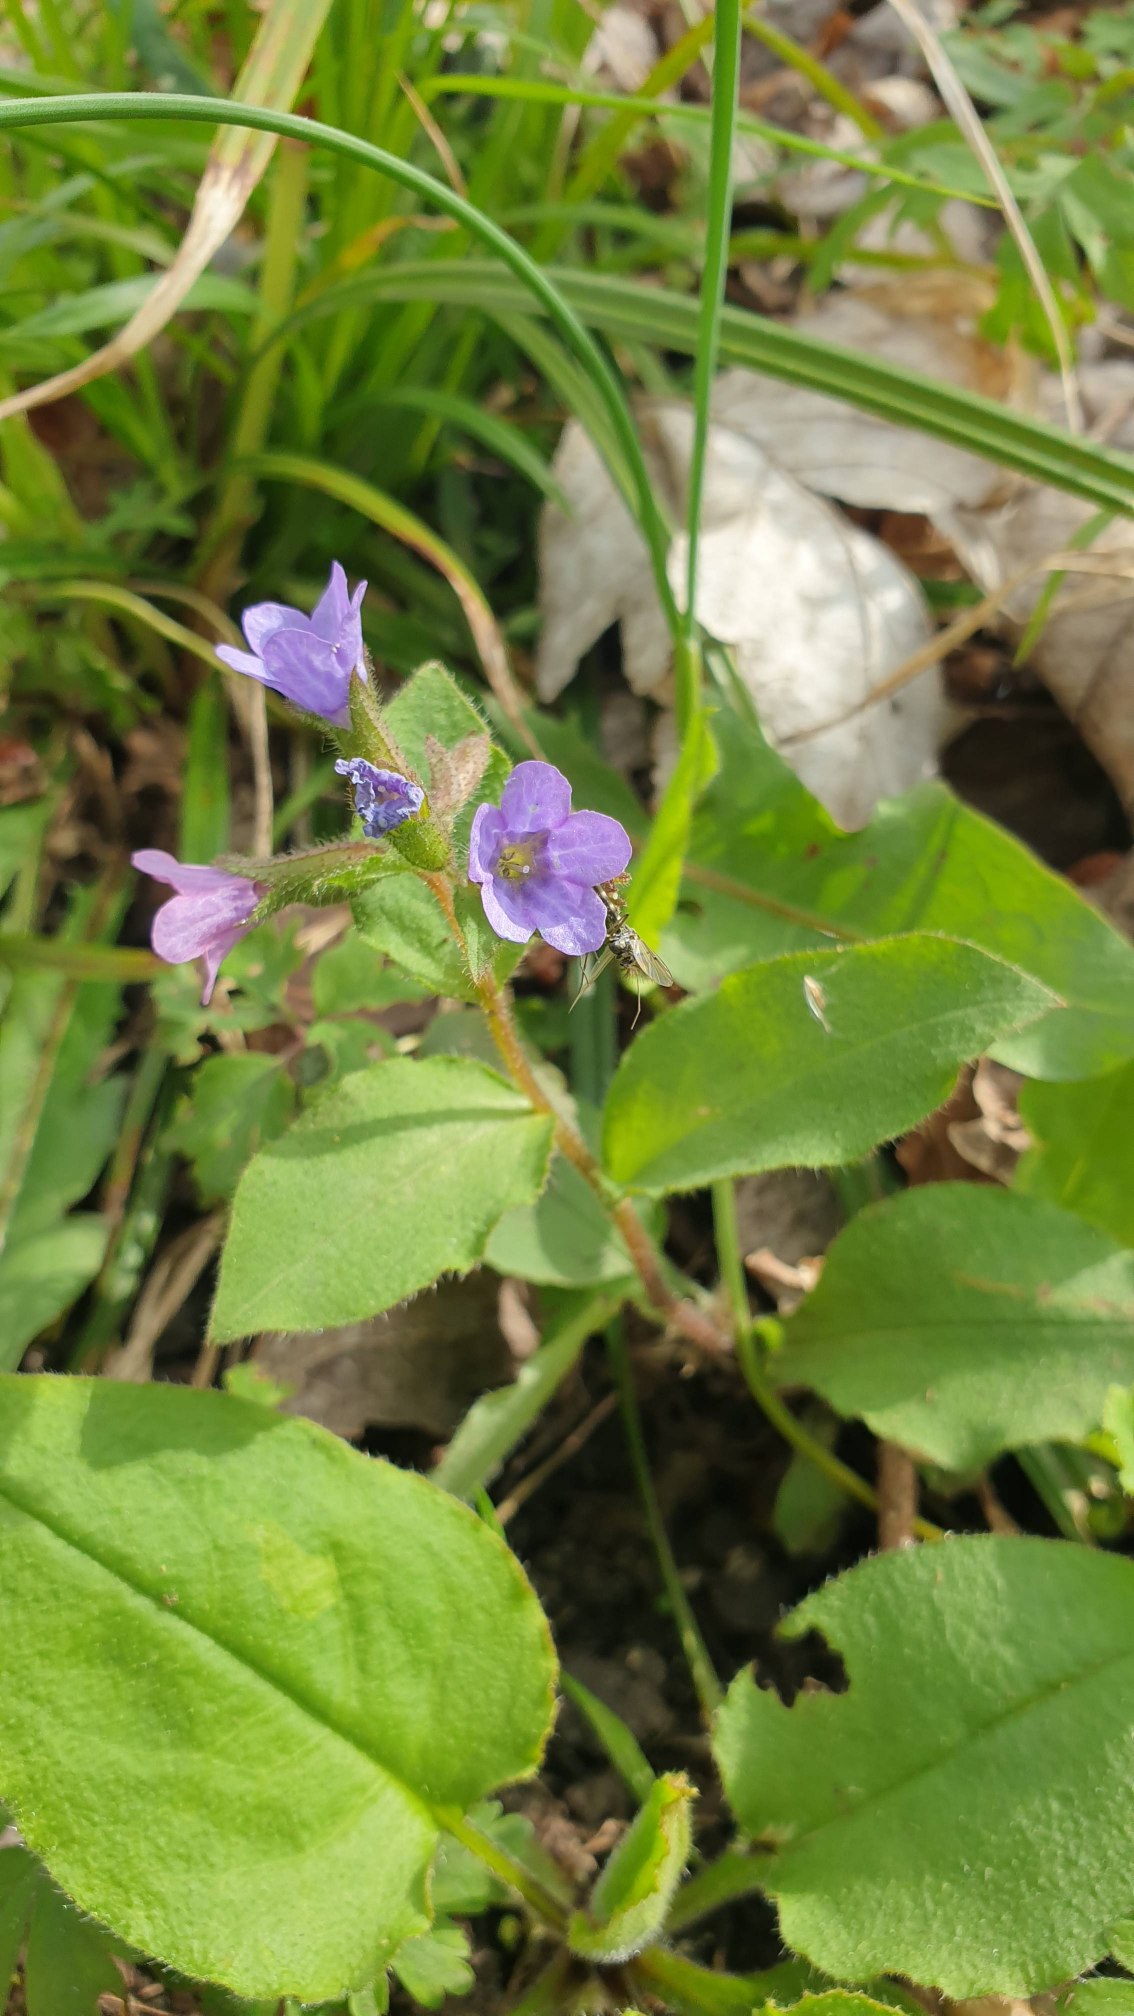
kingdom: Plantae
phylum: Tracheophyta
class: Magnoliopsida
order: Boraginales
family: Boraginaceae
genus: Pulmonaria
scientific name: Pulmonaria obscura
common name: Almindelig lungeurt
